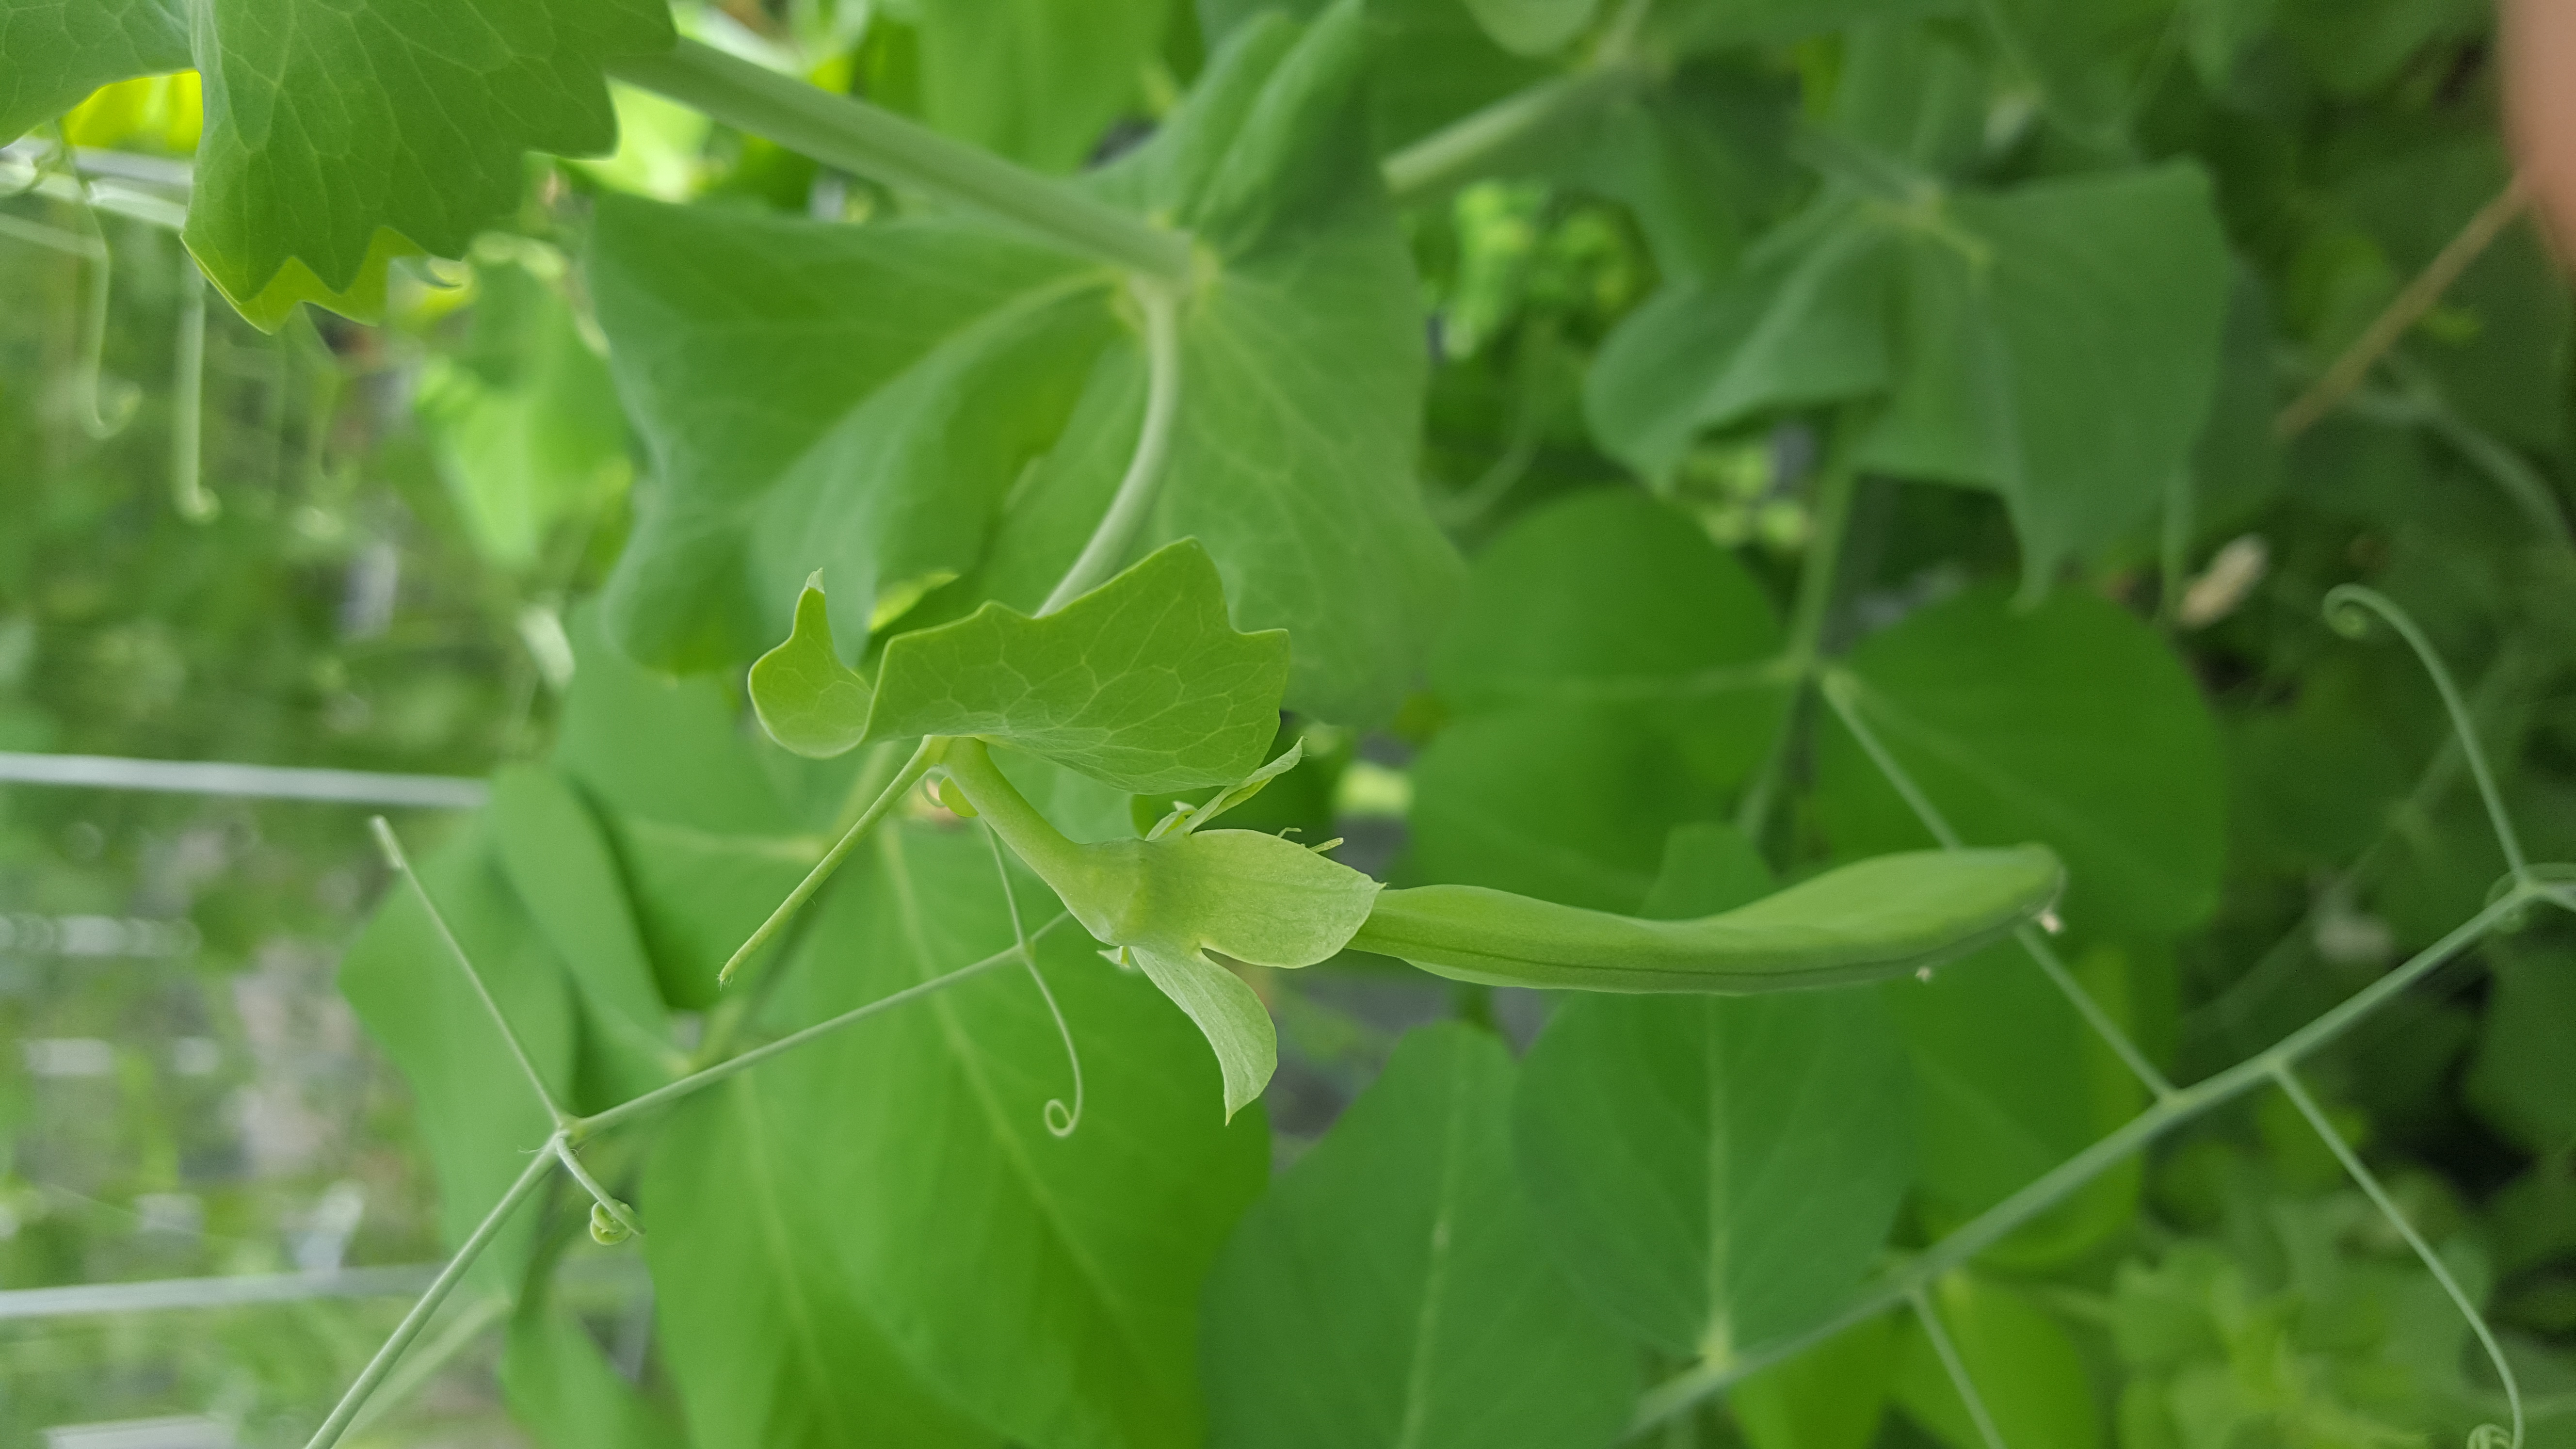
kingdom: Plantae
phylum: Tracheophyta
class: Magnoliopsida
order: Fabales
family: Fabaceae
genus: Lathyrus
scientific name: Lathyrus oleraceus
